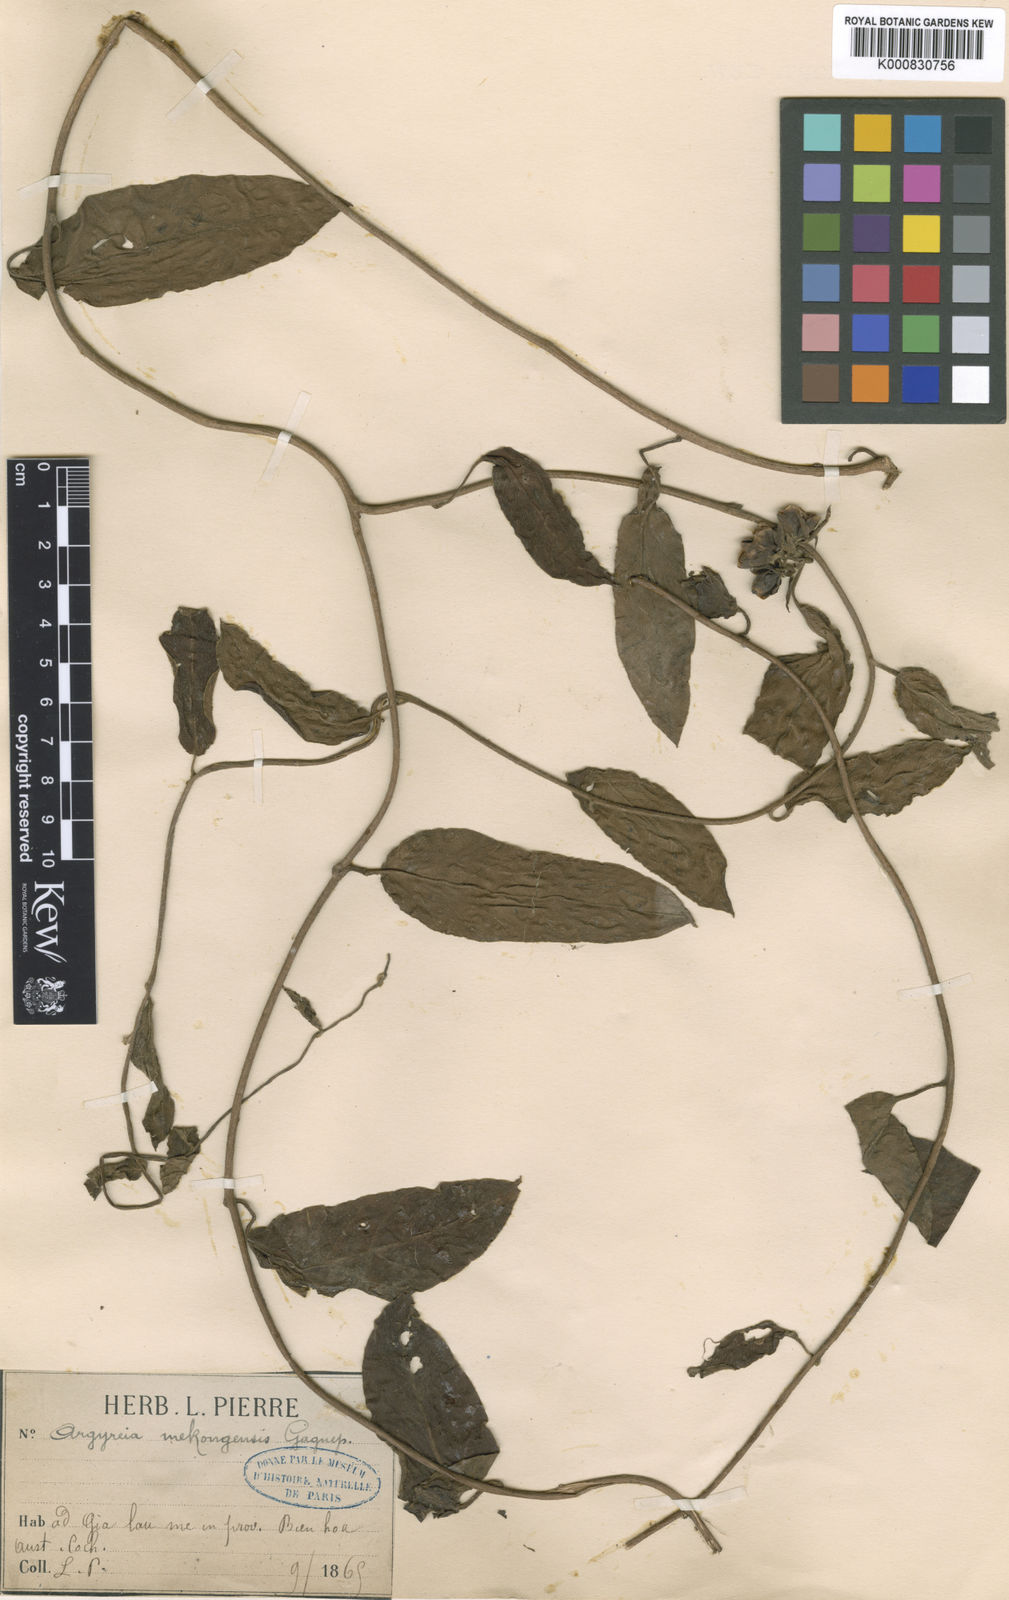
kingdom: Plantae
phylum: Tracheophyta
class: Magnoliopsida
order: Solanales
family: Convolvulaceae
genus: Argyreia
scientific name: Argyreia mekongensis
